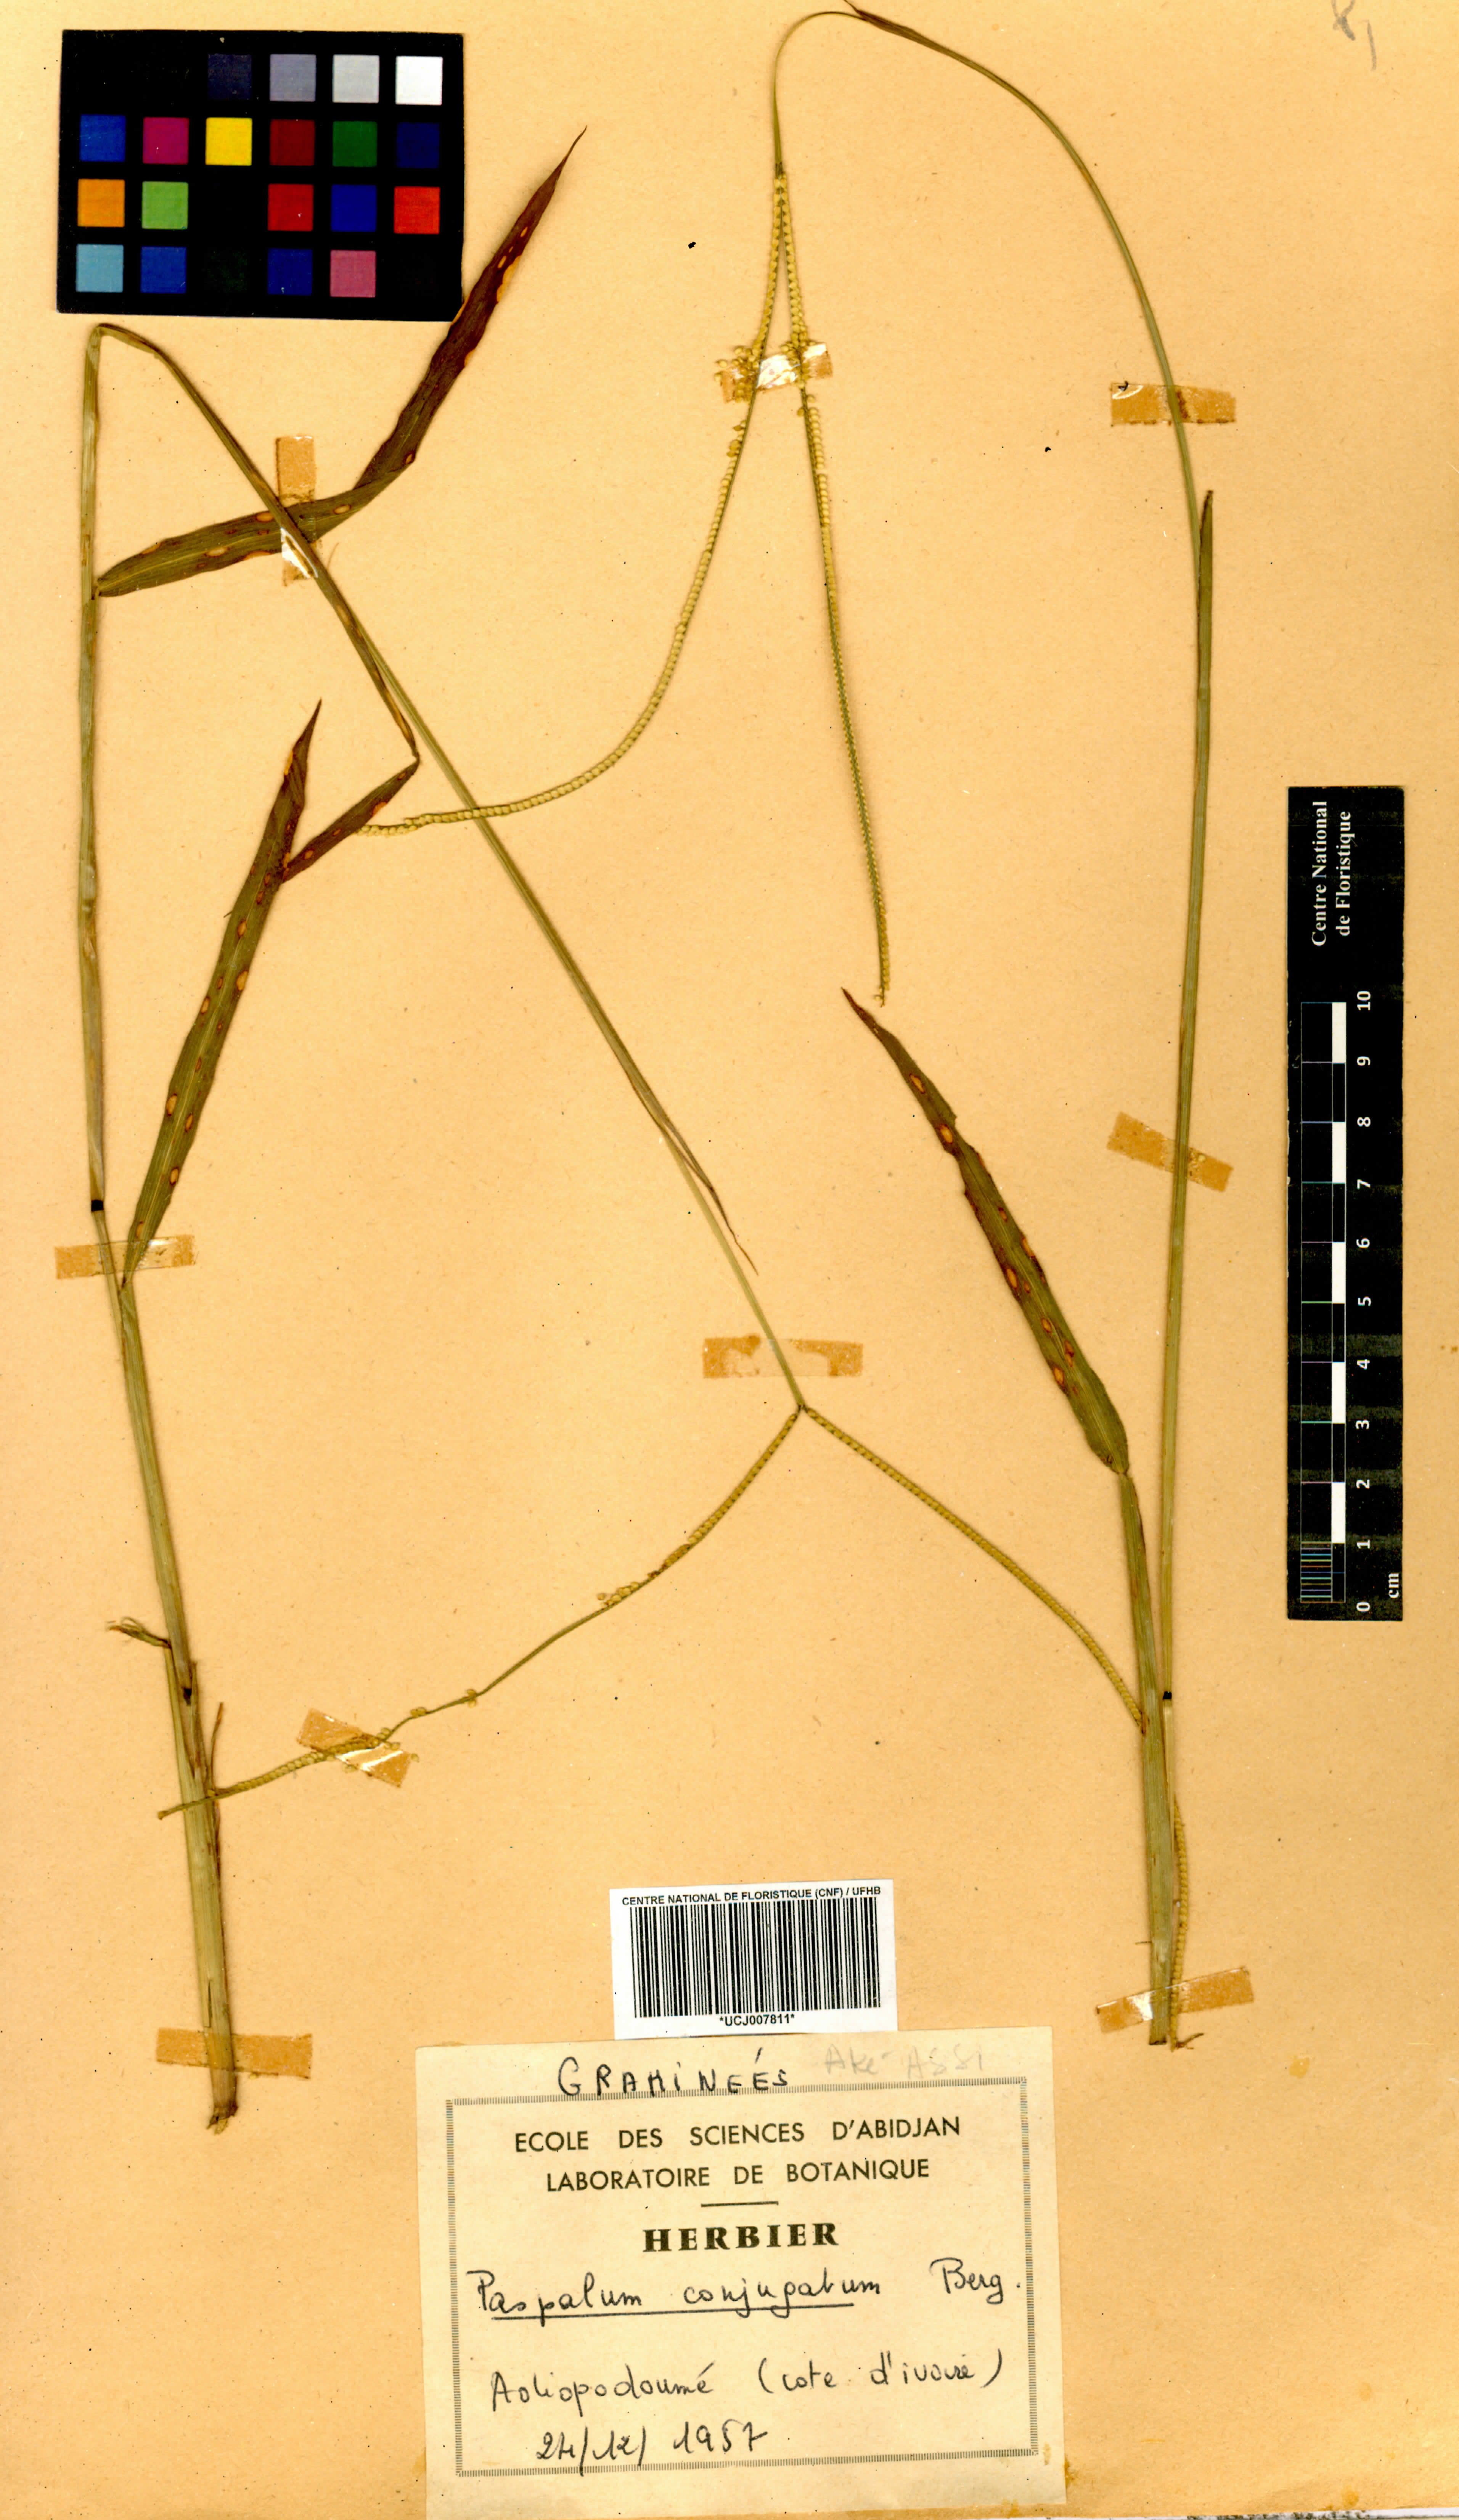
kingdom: Plantae
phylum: Tracheophyta
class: Liliopsida
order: Poales
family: Poaceae
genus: Paspalum
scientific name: Paspalum conjugatum
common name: Hilograss
